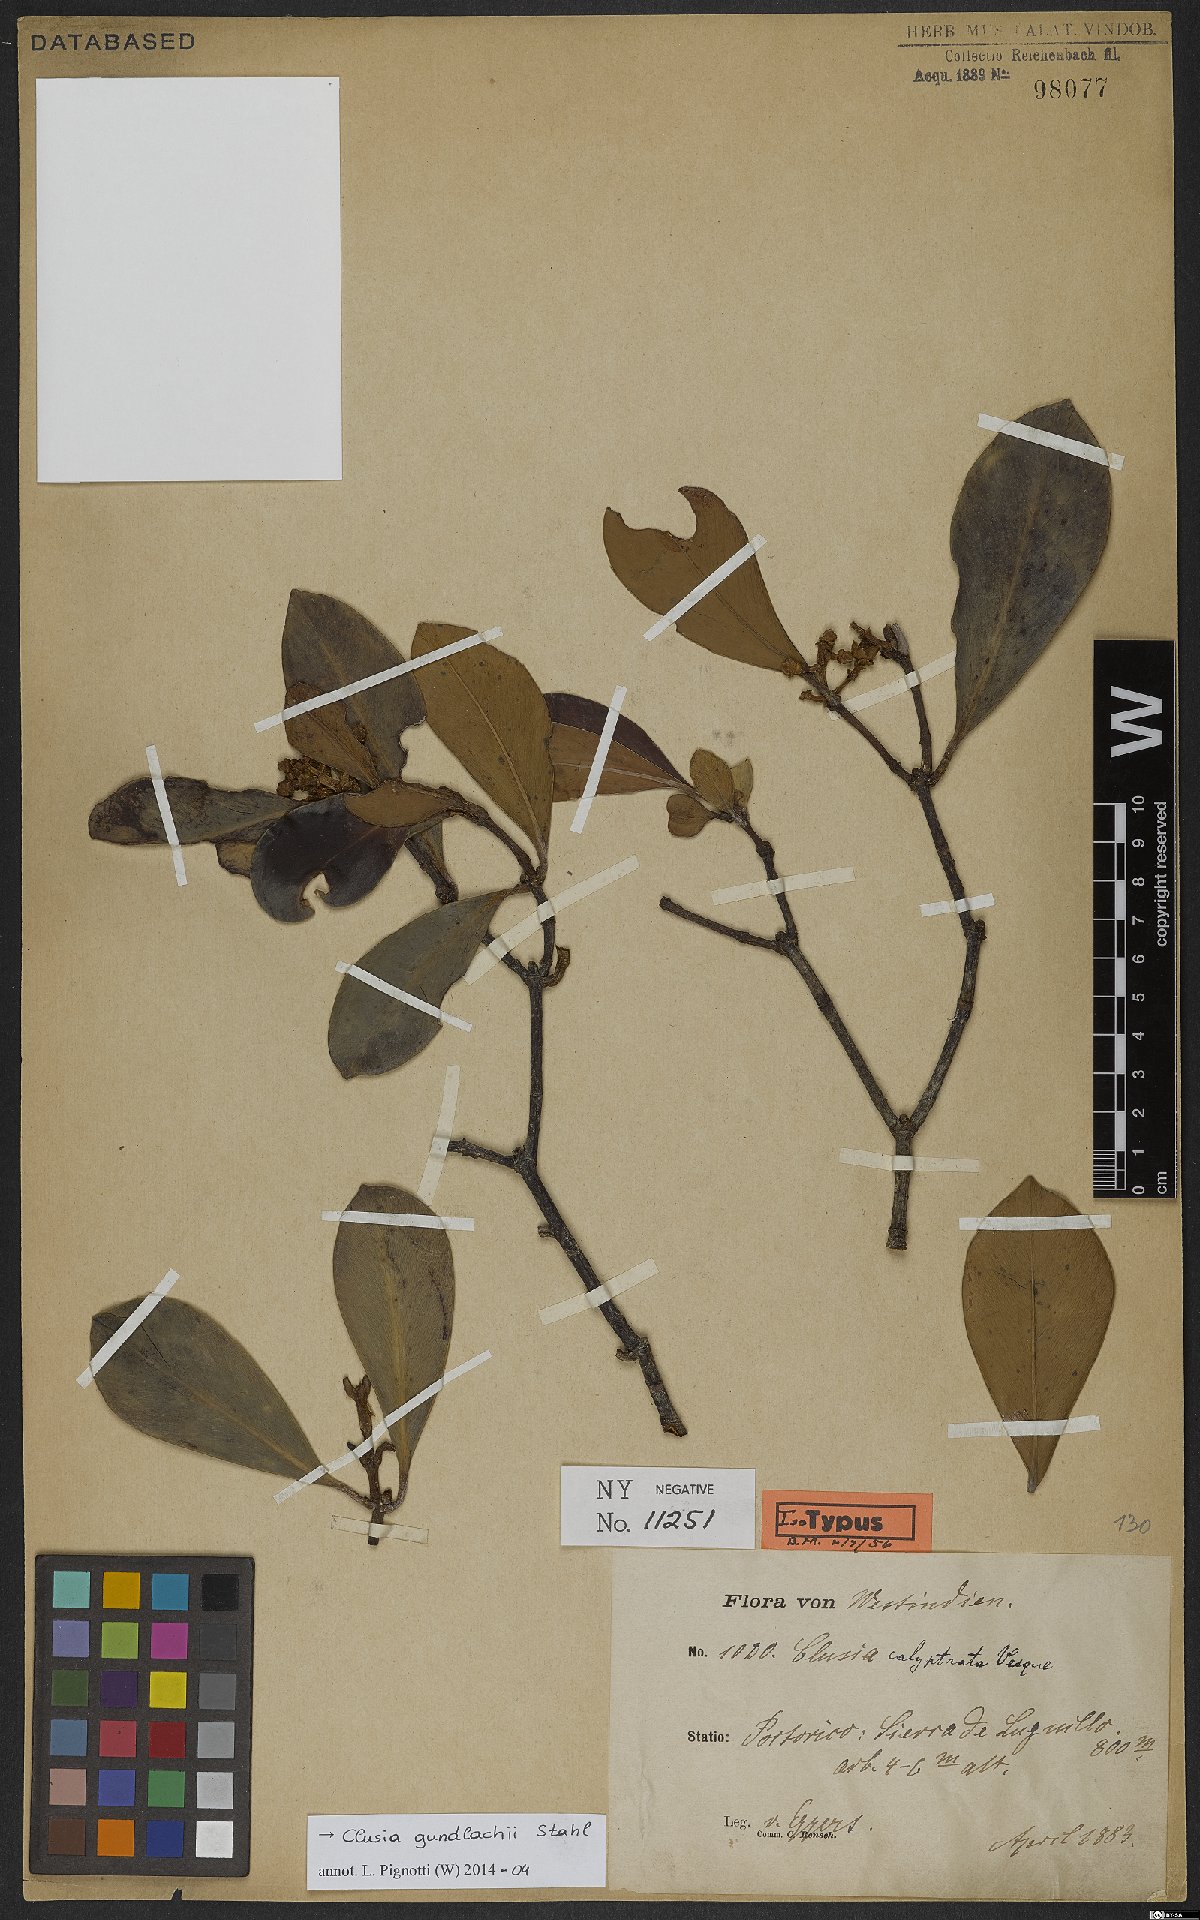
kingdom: Plantae
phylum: Tracheophyta
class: Magnoliopsida
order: Malpighiales
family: Clusiaceae
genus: Clusia
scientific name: Clusia gundlachii
